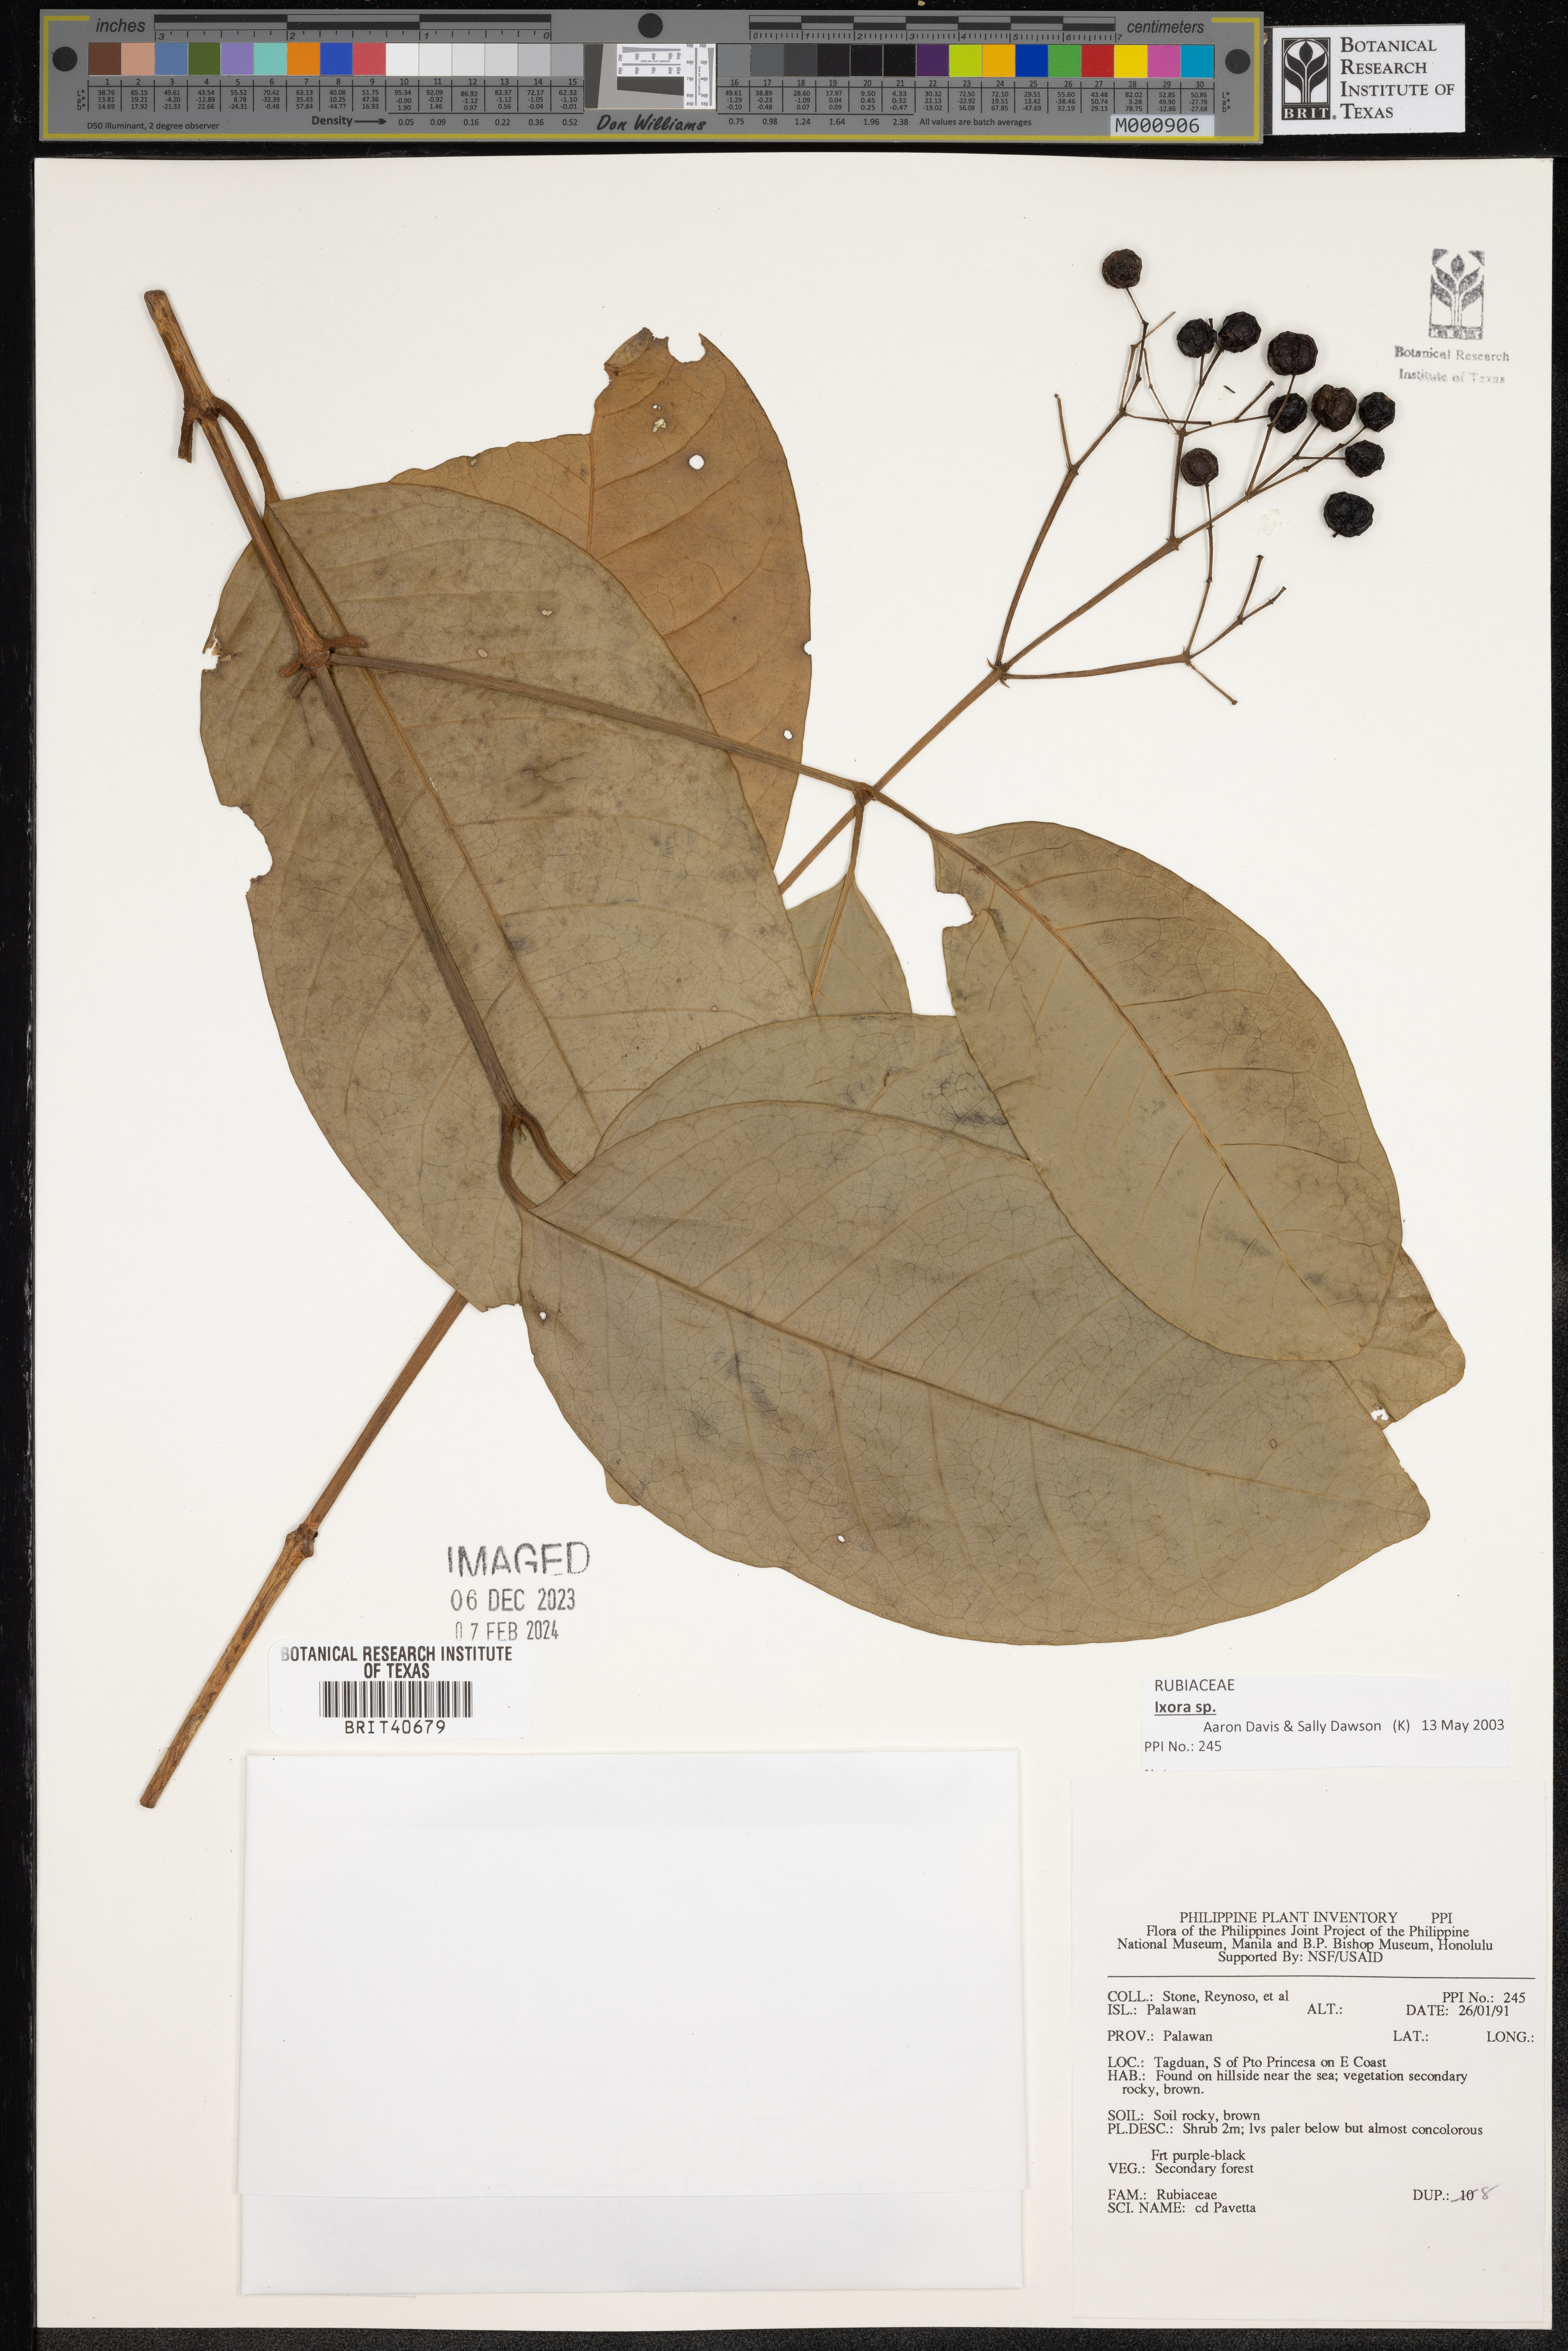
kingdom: Plantae
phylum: Tracheophyta
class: Magnoliopsida
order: Gentianales
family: Rubiaceae
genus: Pavetta
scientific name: Pavetta
